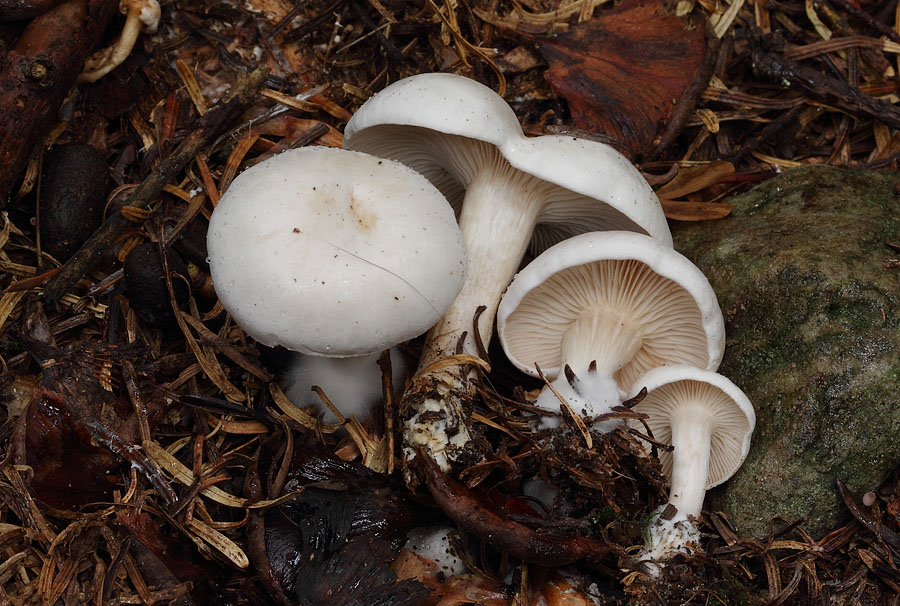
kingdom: Fungi
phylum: Basidiomycota
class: Agaricomycetes
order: Agaricales
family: Tricholomataceae
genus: Clitocybe
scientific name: Clitocybe phyllophila
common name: løv-tragthat
